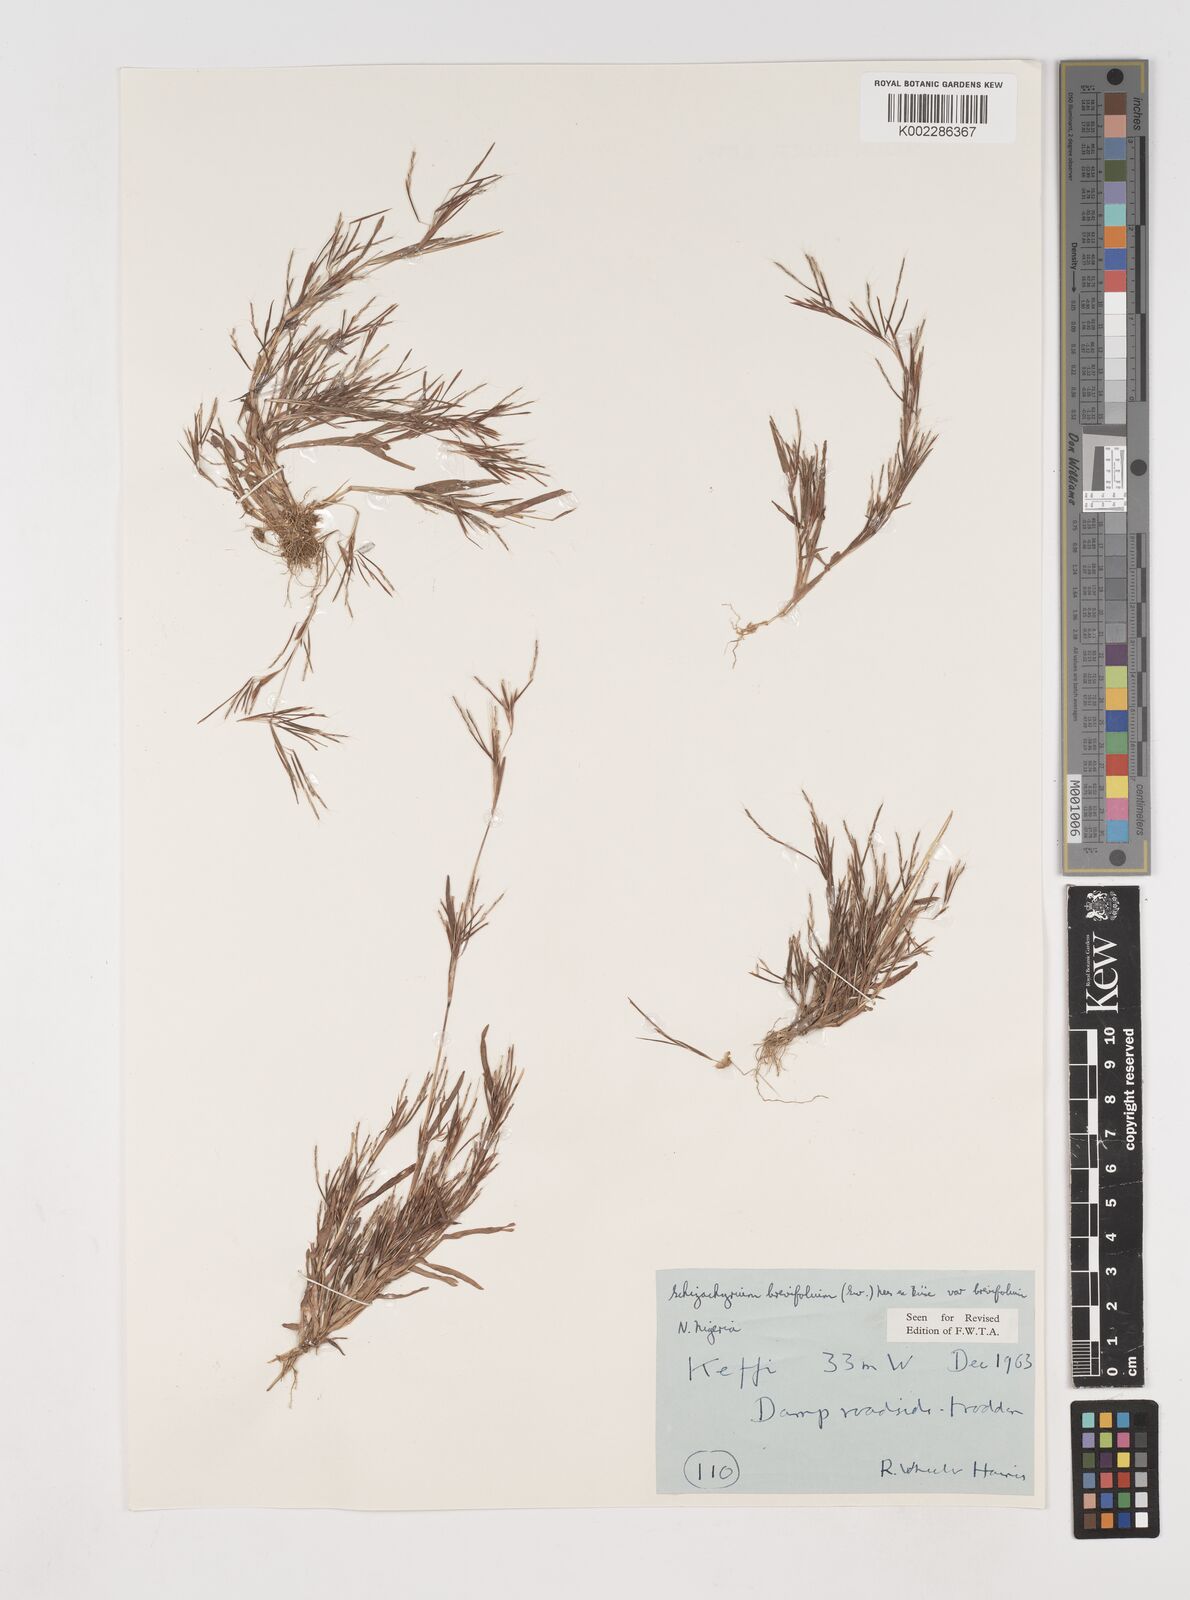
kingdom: Plantae
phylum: Tracheophyta
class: Liliopsida
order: Poales
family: Poaceae
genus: Schizachyrium
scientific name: Schizachyrium brevifolium
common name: Serillo dulce
